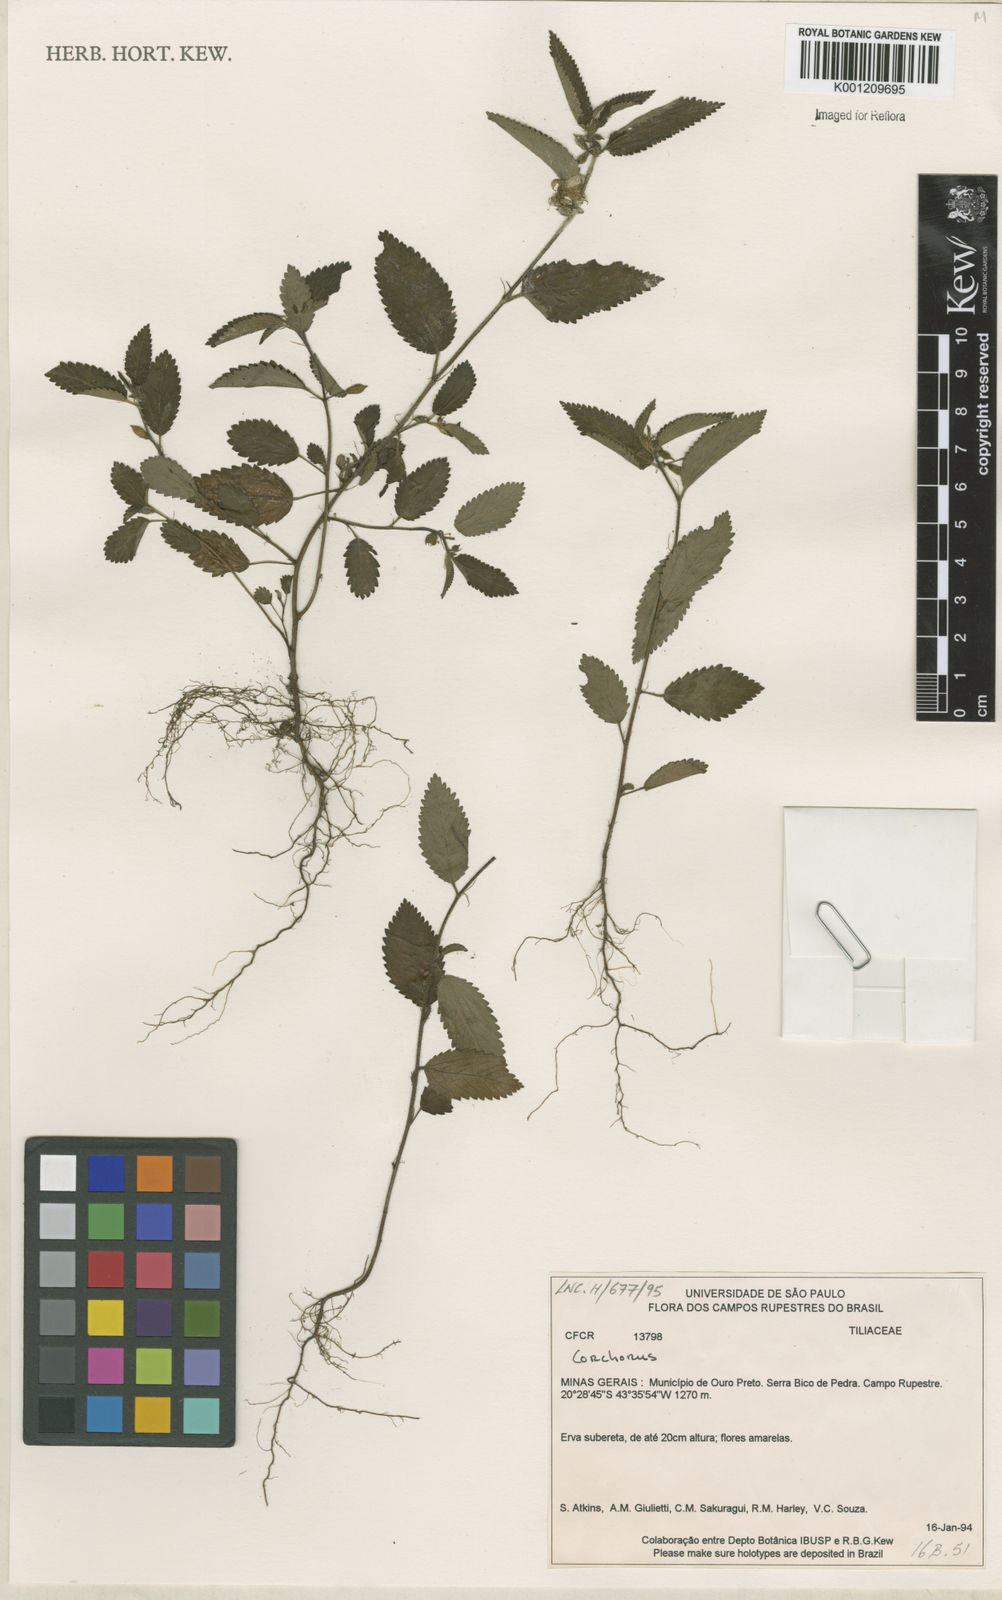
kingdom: Plantae
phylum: Tracheophyta
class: Magnoliopsida
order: Malvales
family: Malvaceae
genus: Corchorus
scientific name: Corchorus
